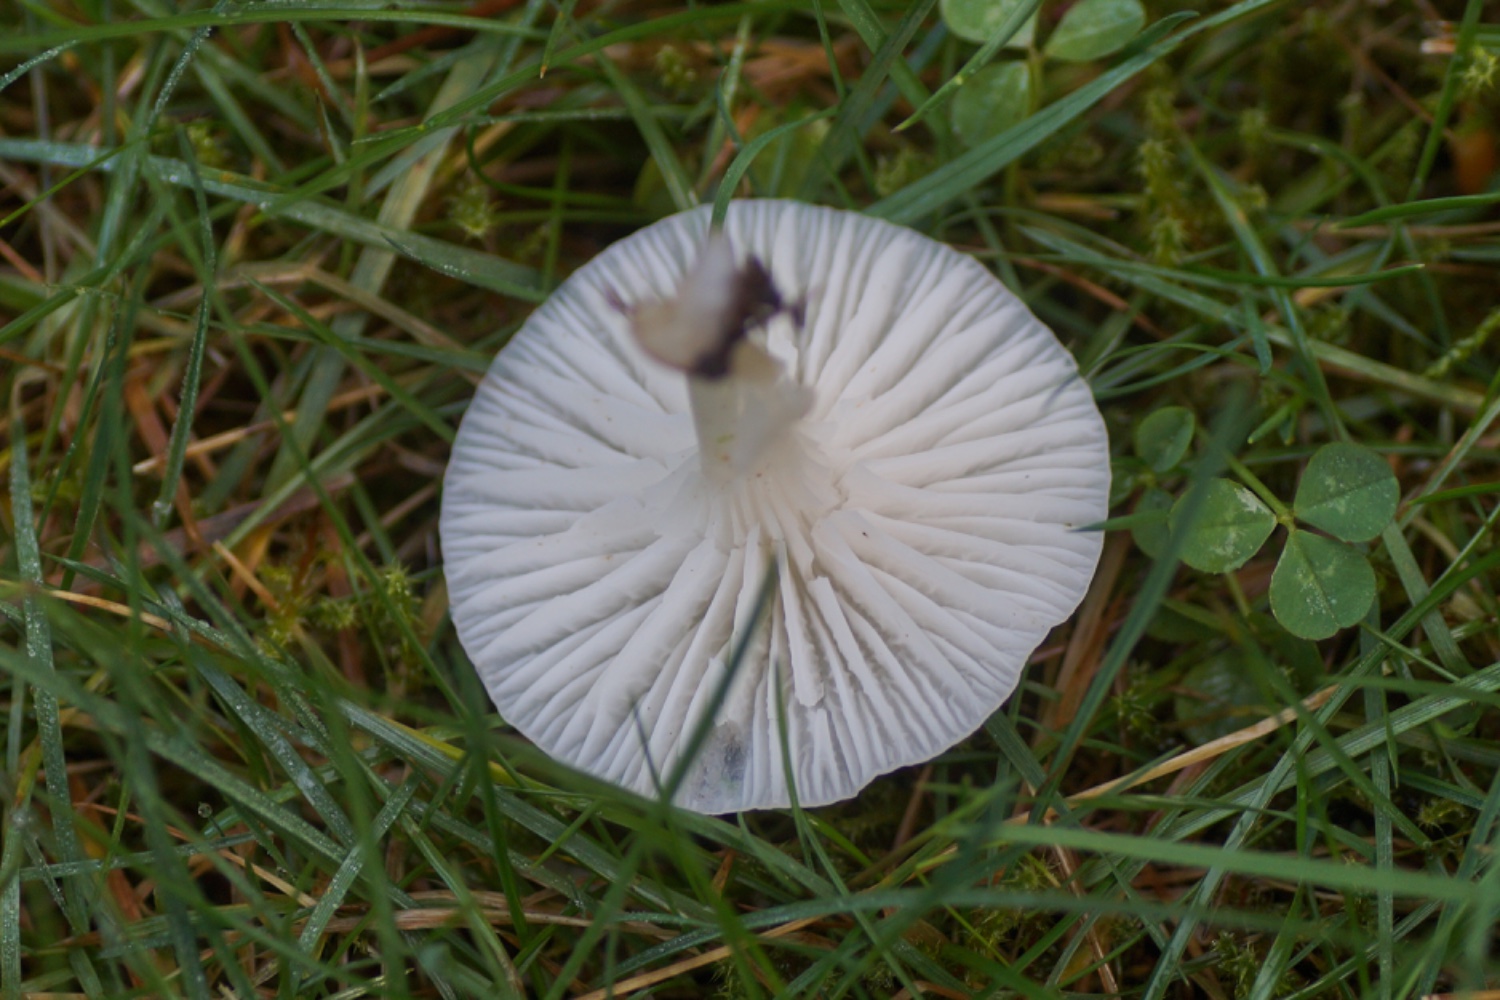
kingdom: Fungi
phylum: Basidiomycota
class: Agaricomycetes
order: Agaricales
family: Hygrophoraceae
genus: Cuphophyllus
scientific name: Cuphophyllus virgineus
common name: snehvid vokshat
